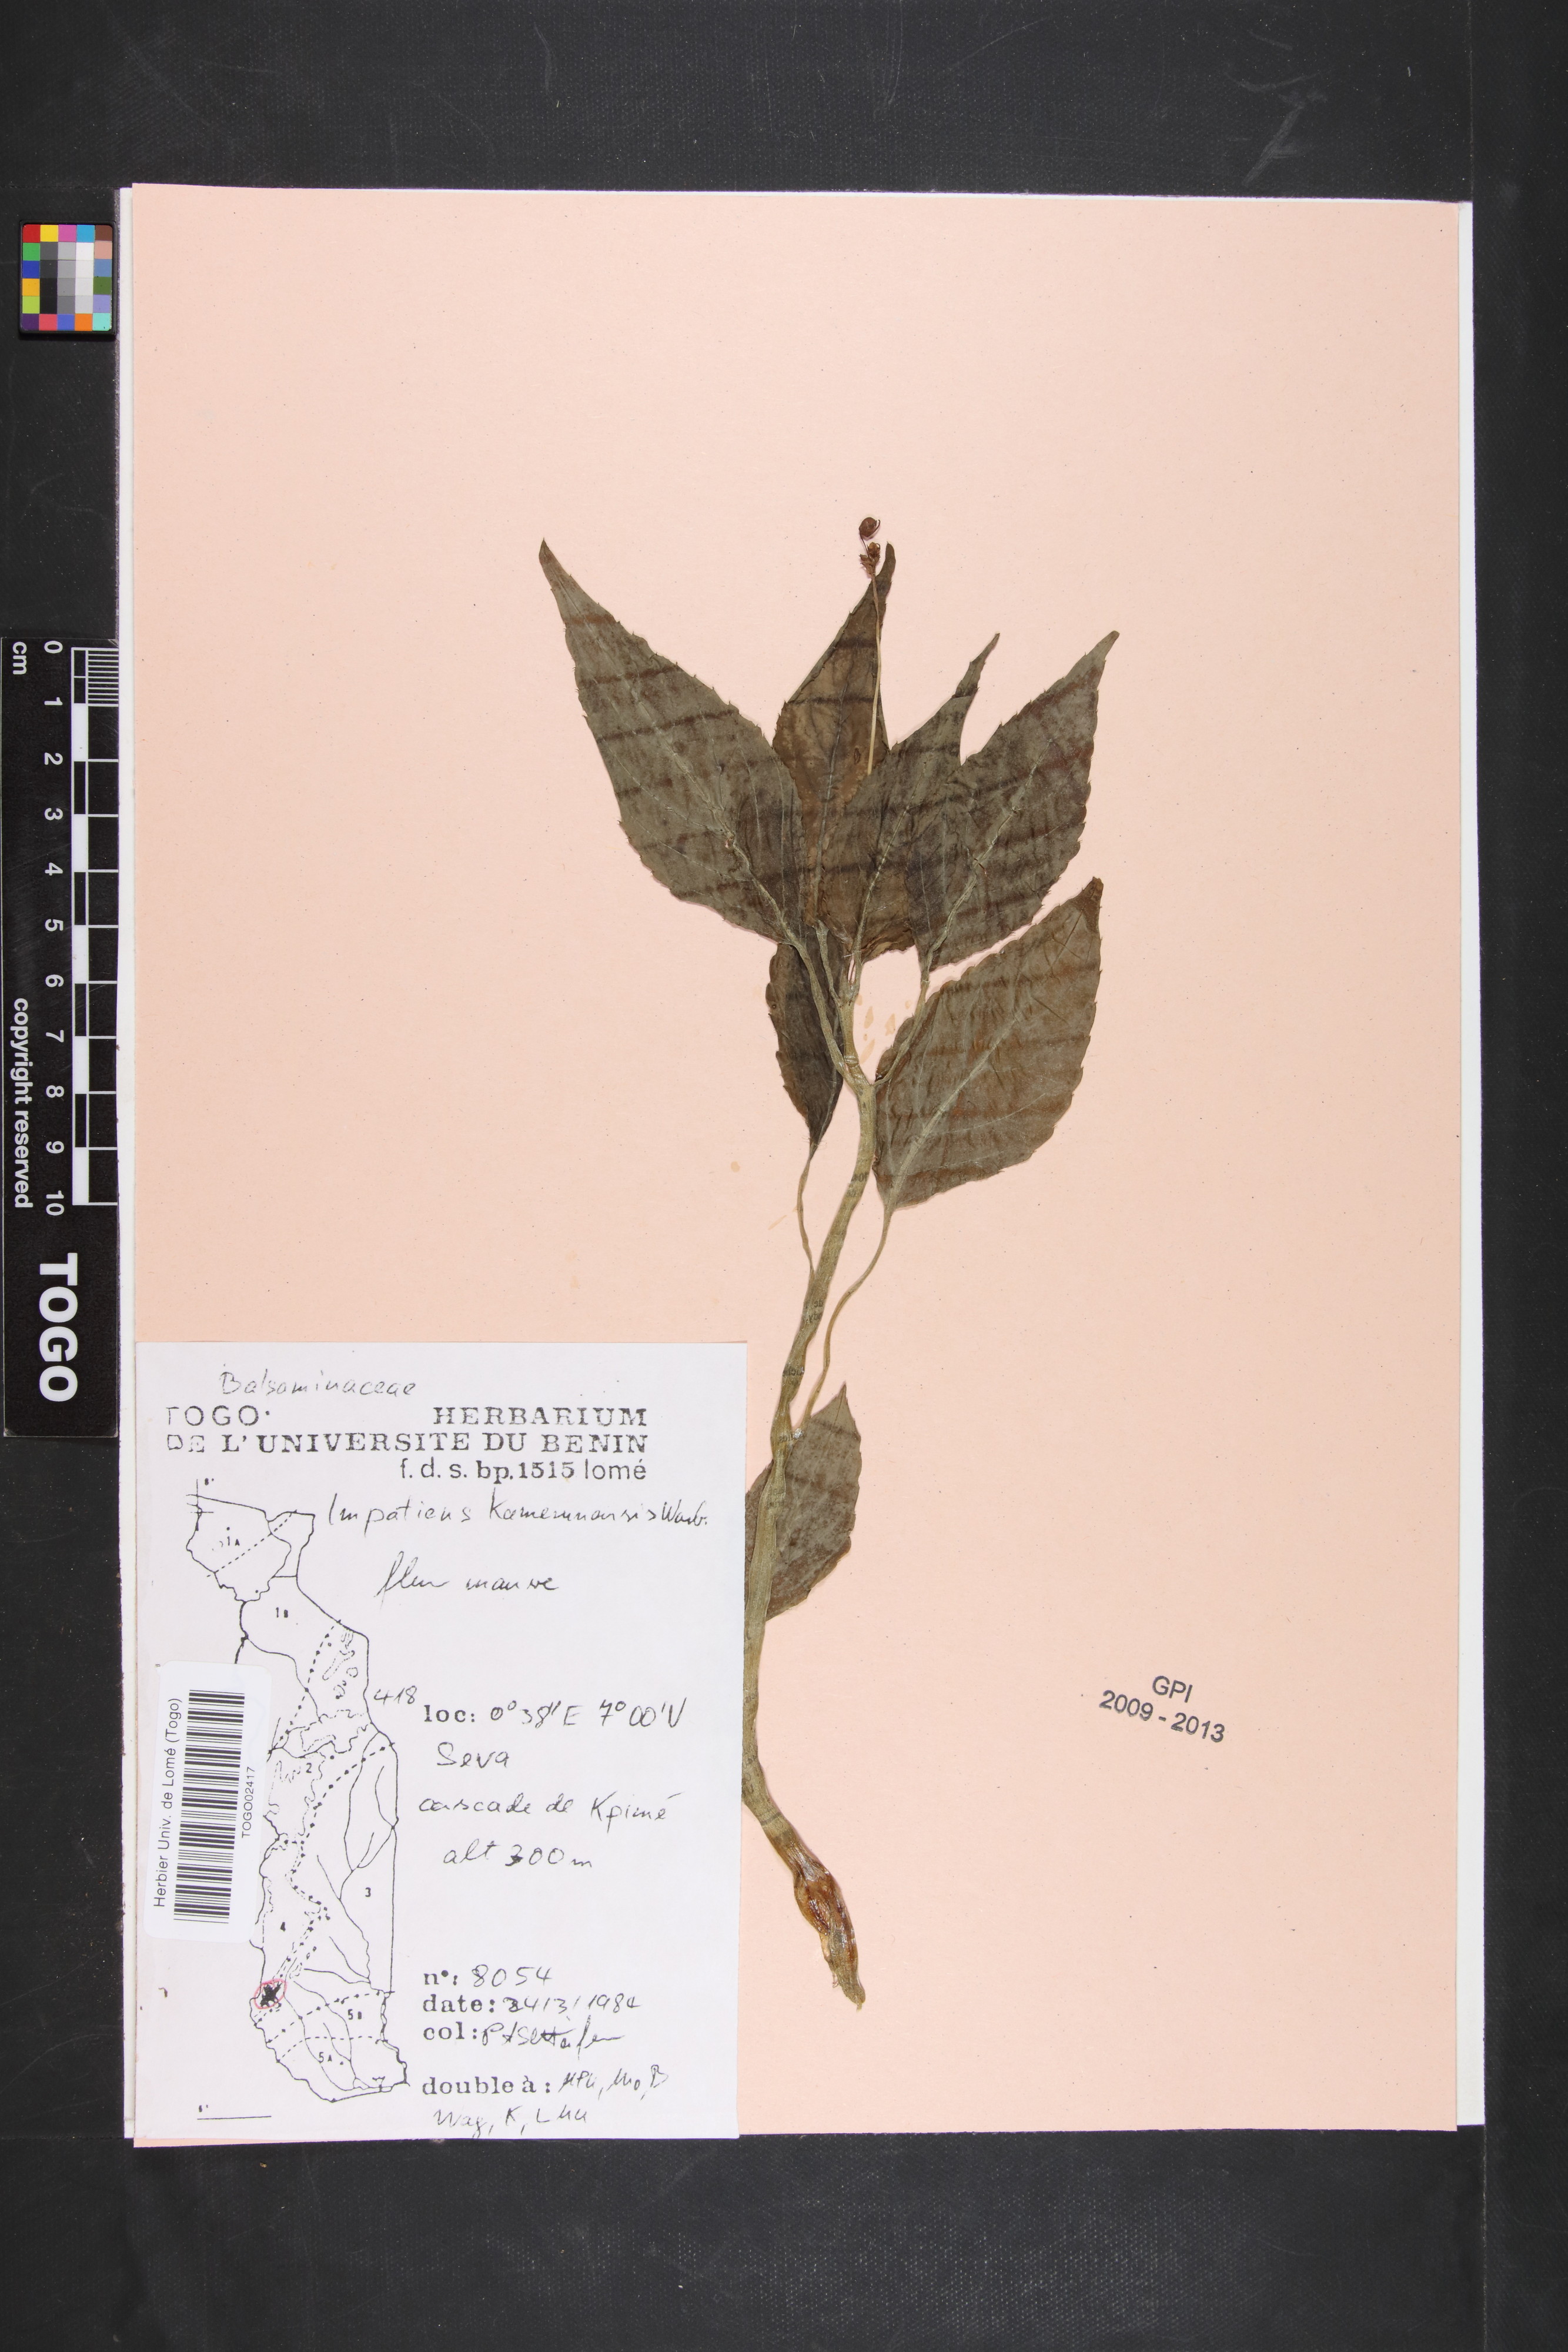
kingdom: Plantae
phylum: Tracheophyta
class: Magnoliopsida
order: Ericales
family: Balsaminaceae
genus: Impatiens
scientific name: Impatiens kamerunensis
